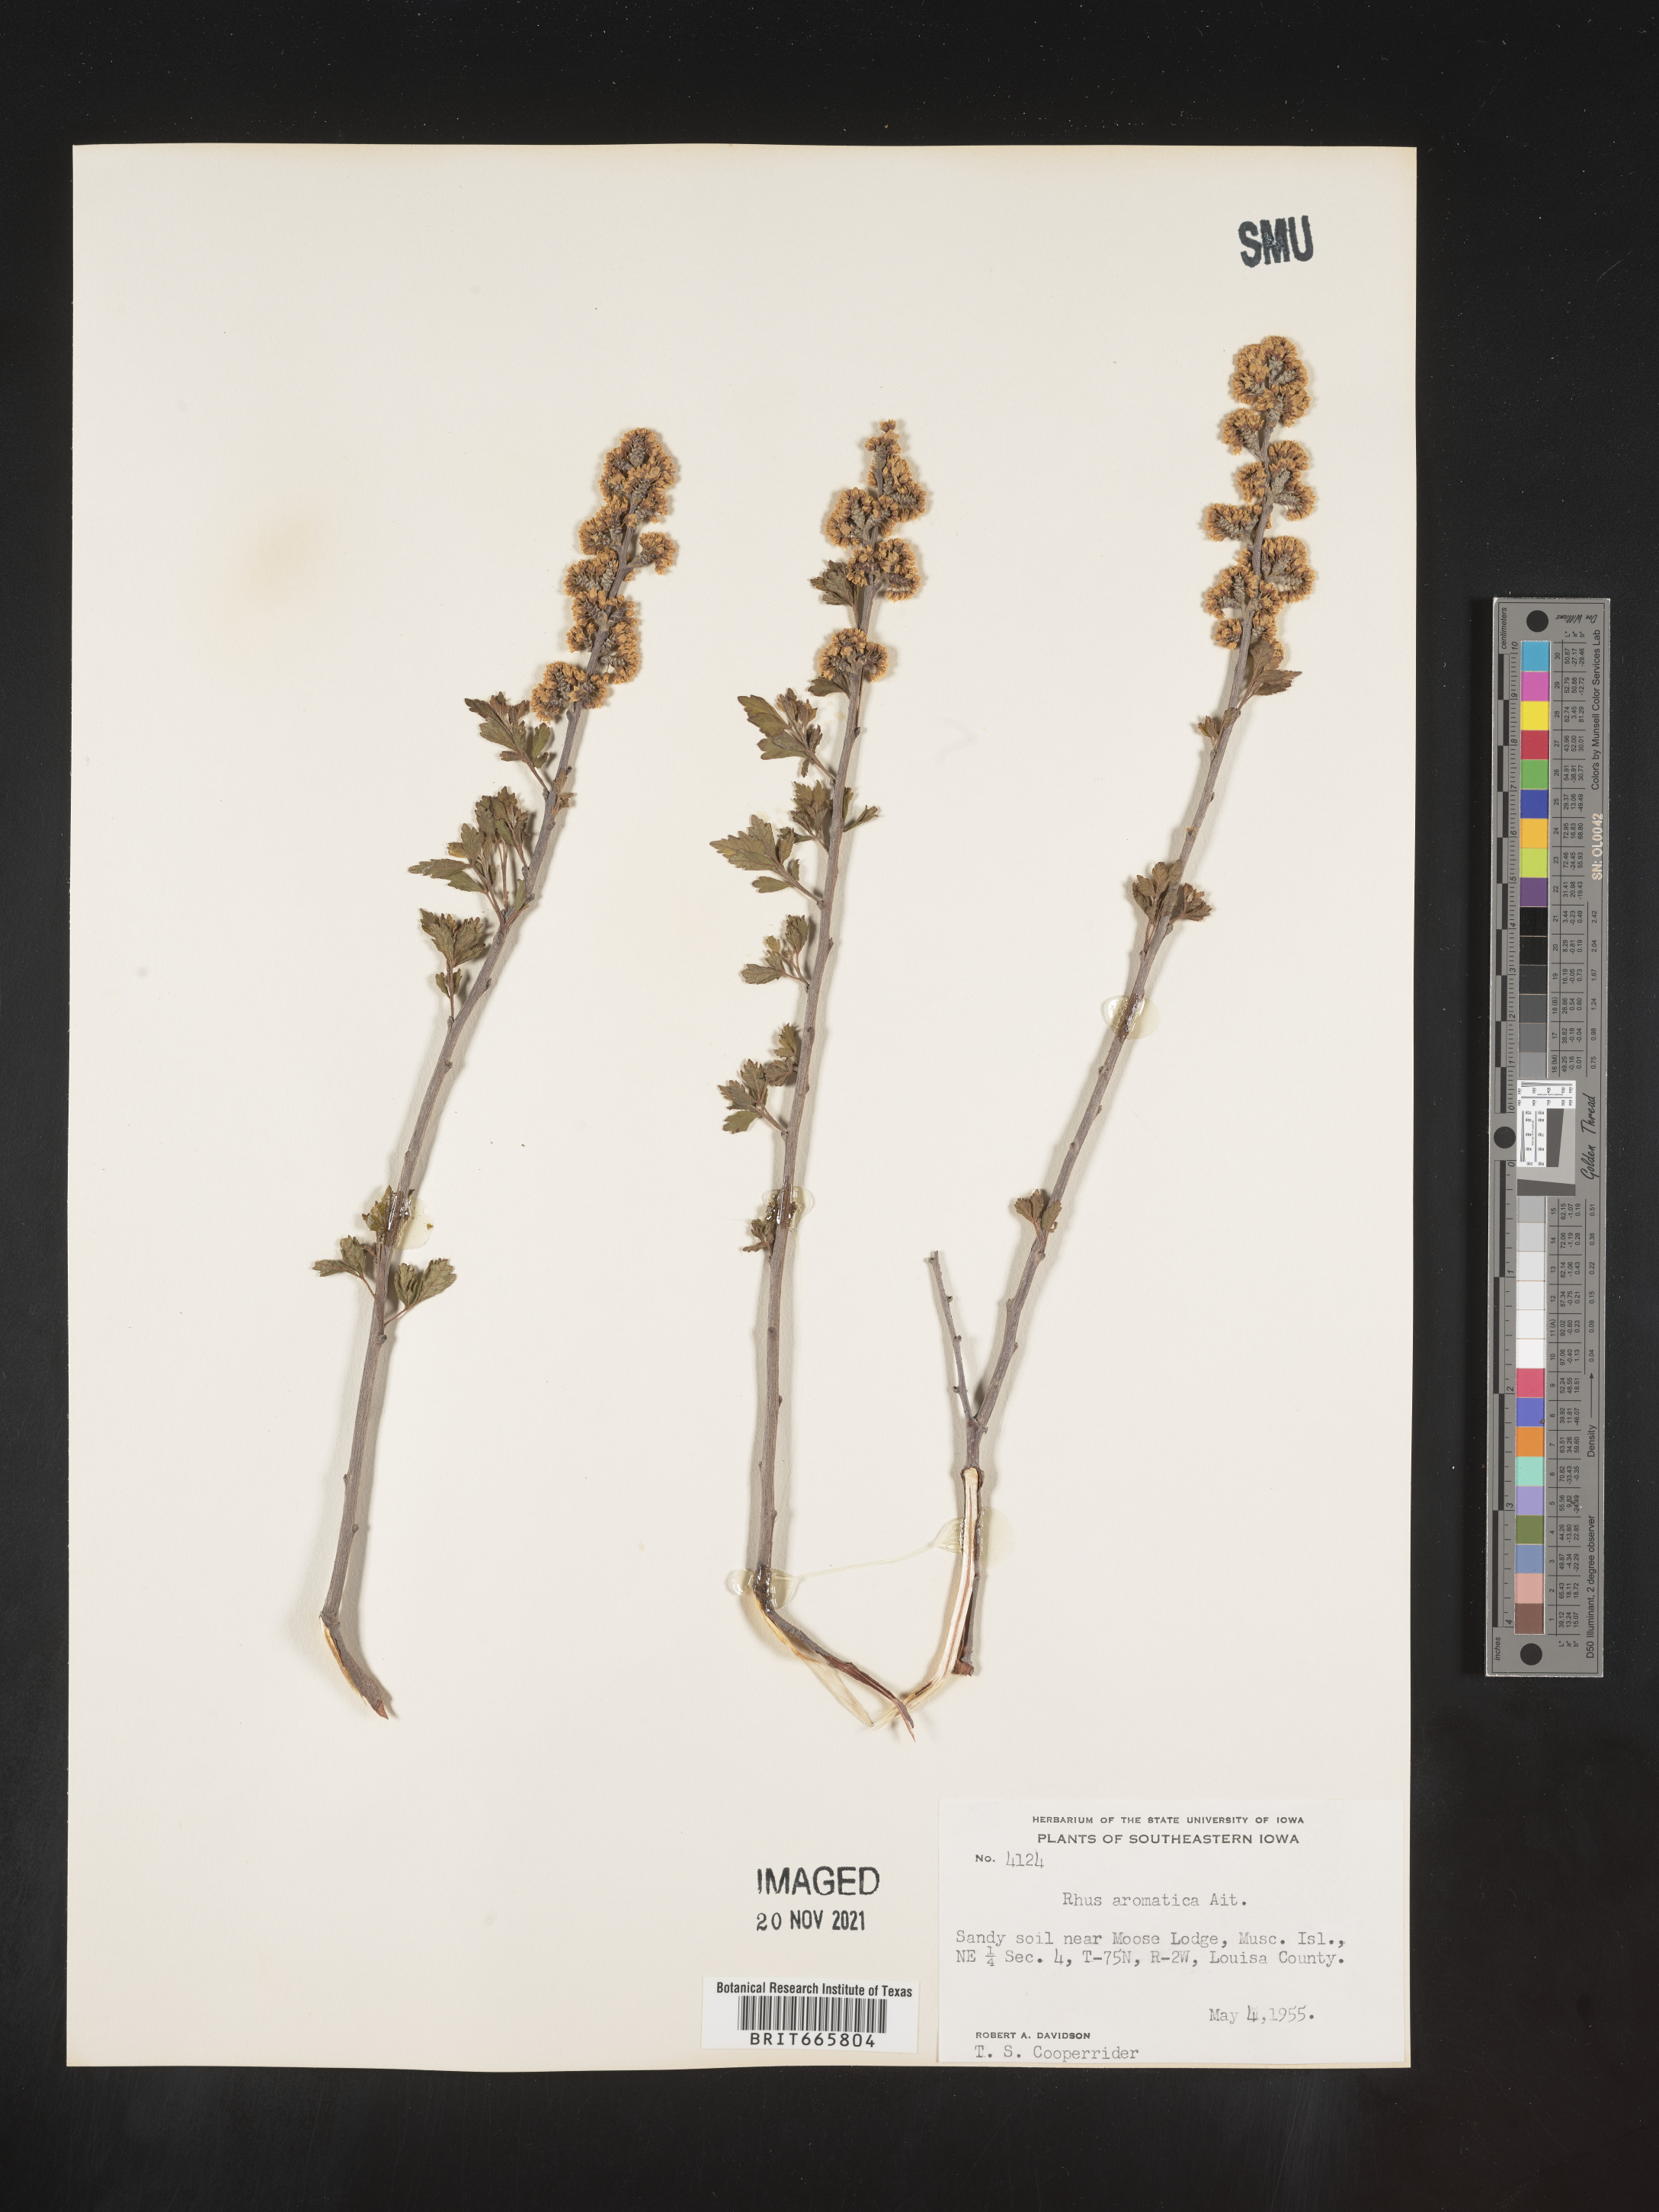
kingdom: Plantae
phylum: Tracheophyta
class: Magnoliopsida
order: Sapindales
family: Anacardiaceae
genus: Rhus
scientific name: Rhus aromatica
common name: Aromatic sumac
